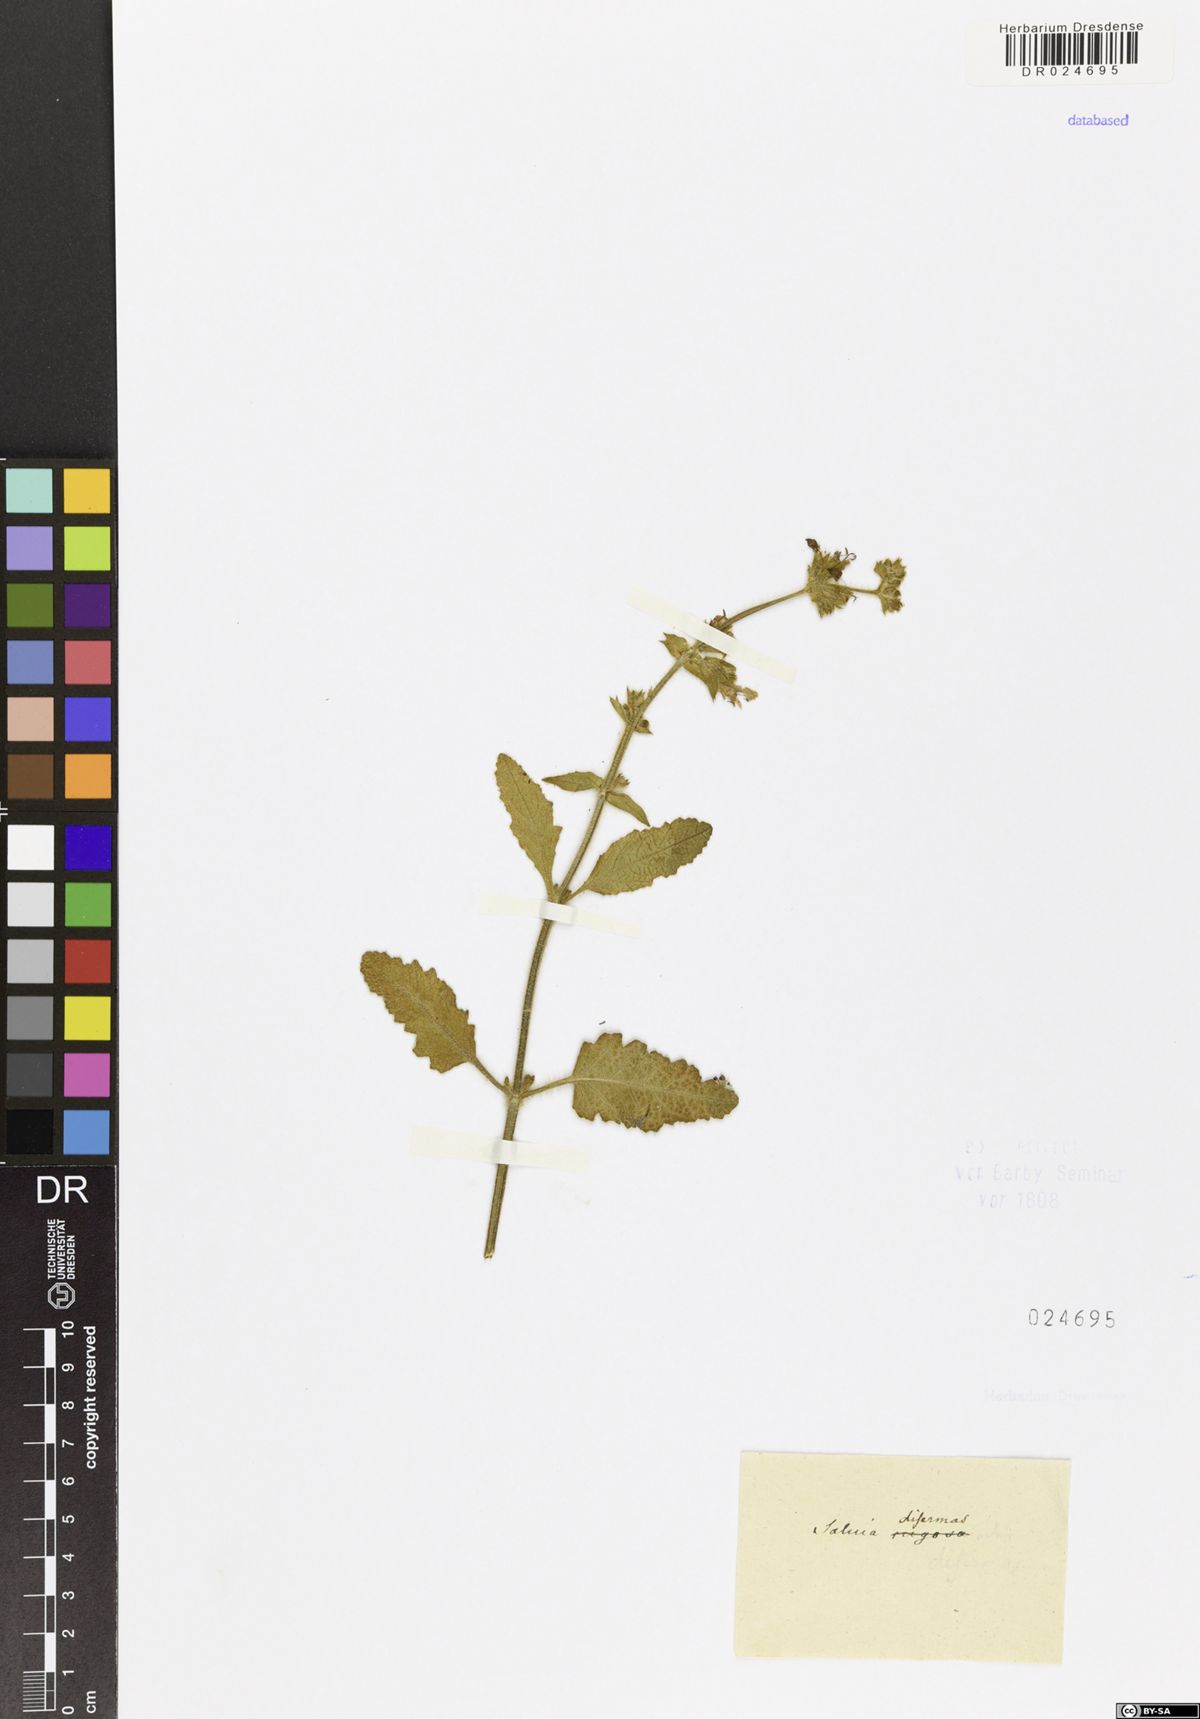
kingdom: Plantae
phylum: Tracheophyta
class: Magnoliopsida
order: Lamiales
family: Lamiaceae
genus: Salvia
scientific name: Salvia disermas
